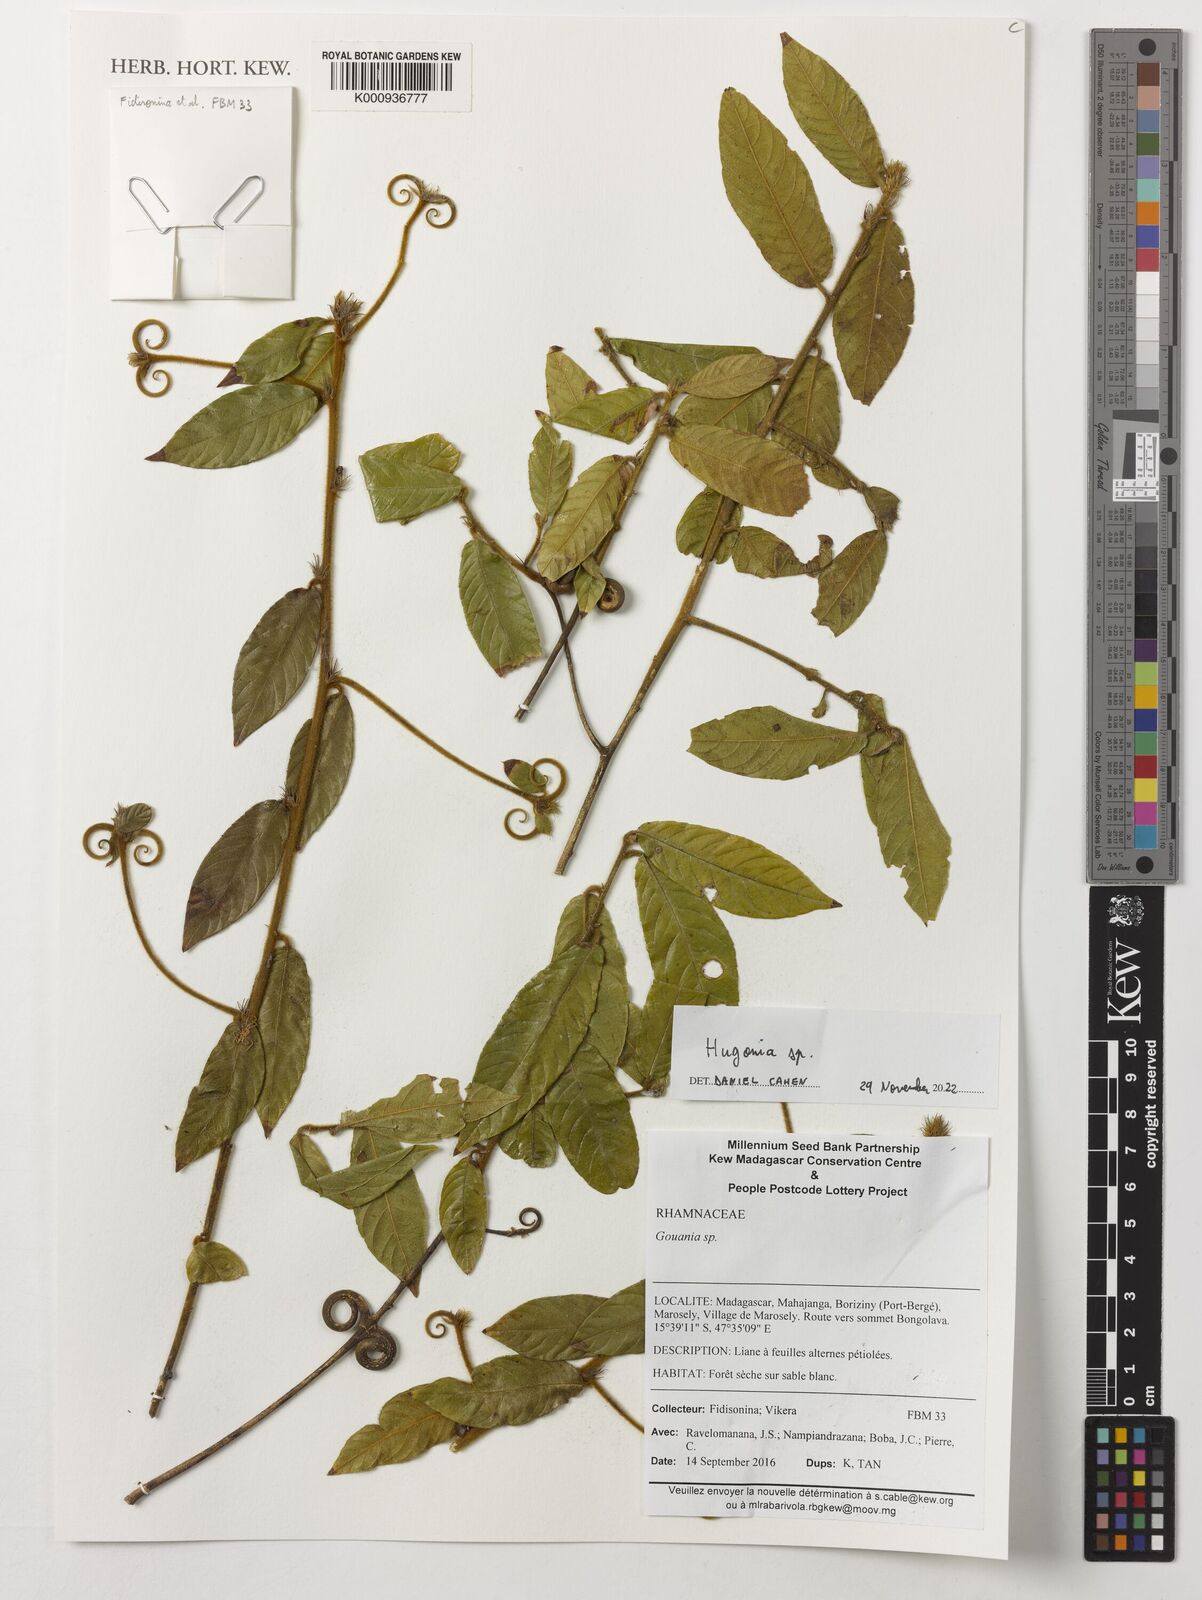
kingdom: Plantae
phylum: Tracheophyta
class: Magnoliopsida
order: Malpighiales
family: Linaceae
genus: Hugonia
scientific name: Hugonia
